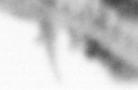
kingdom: Animalia
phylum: Annelida
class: Polychaeta
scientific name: Polychaeta
